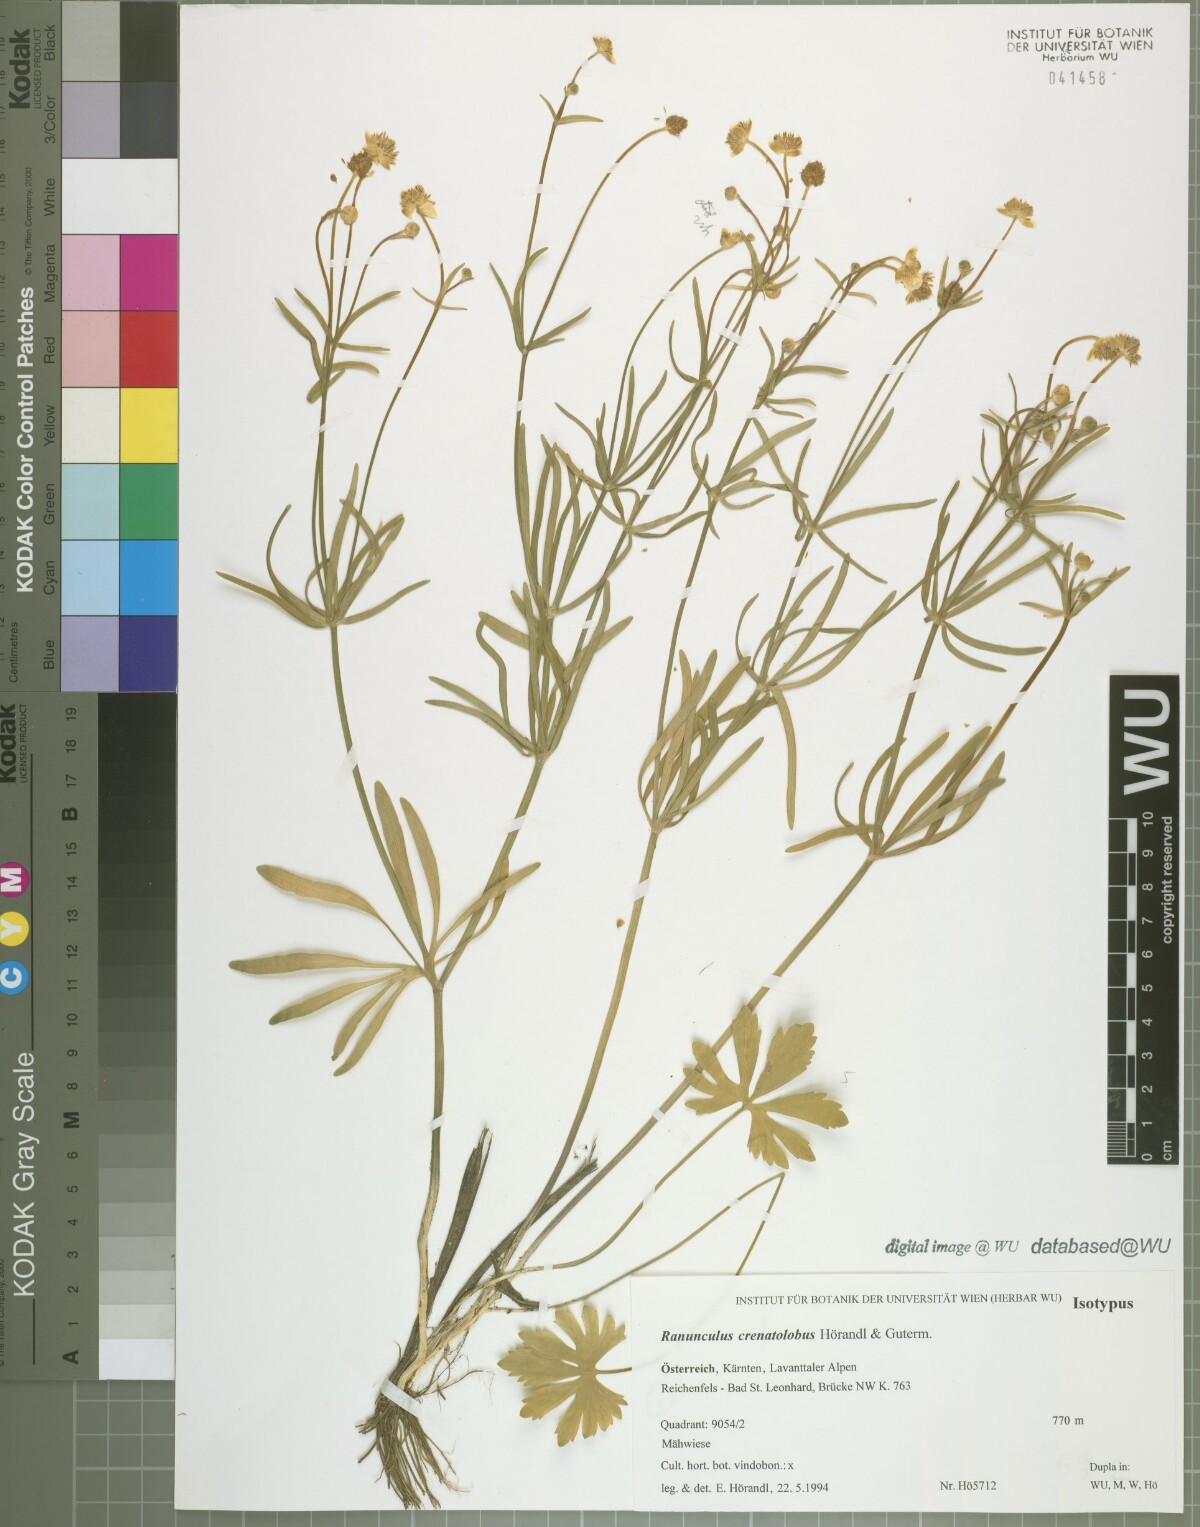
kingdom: Plantae
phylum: Tracheophyta
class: Magnoliopsida
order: Ranunculales
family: Ranunculaceae
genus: Ranunculus
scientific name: Ranunculus crenatolobus
